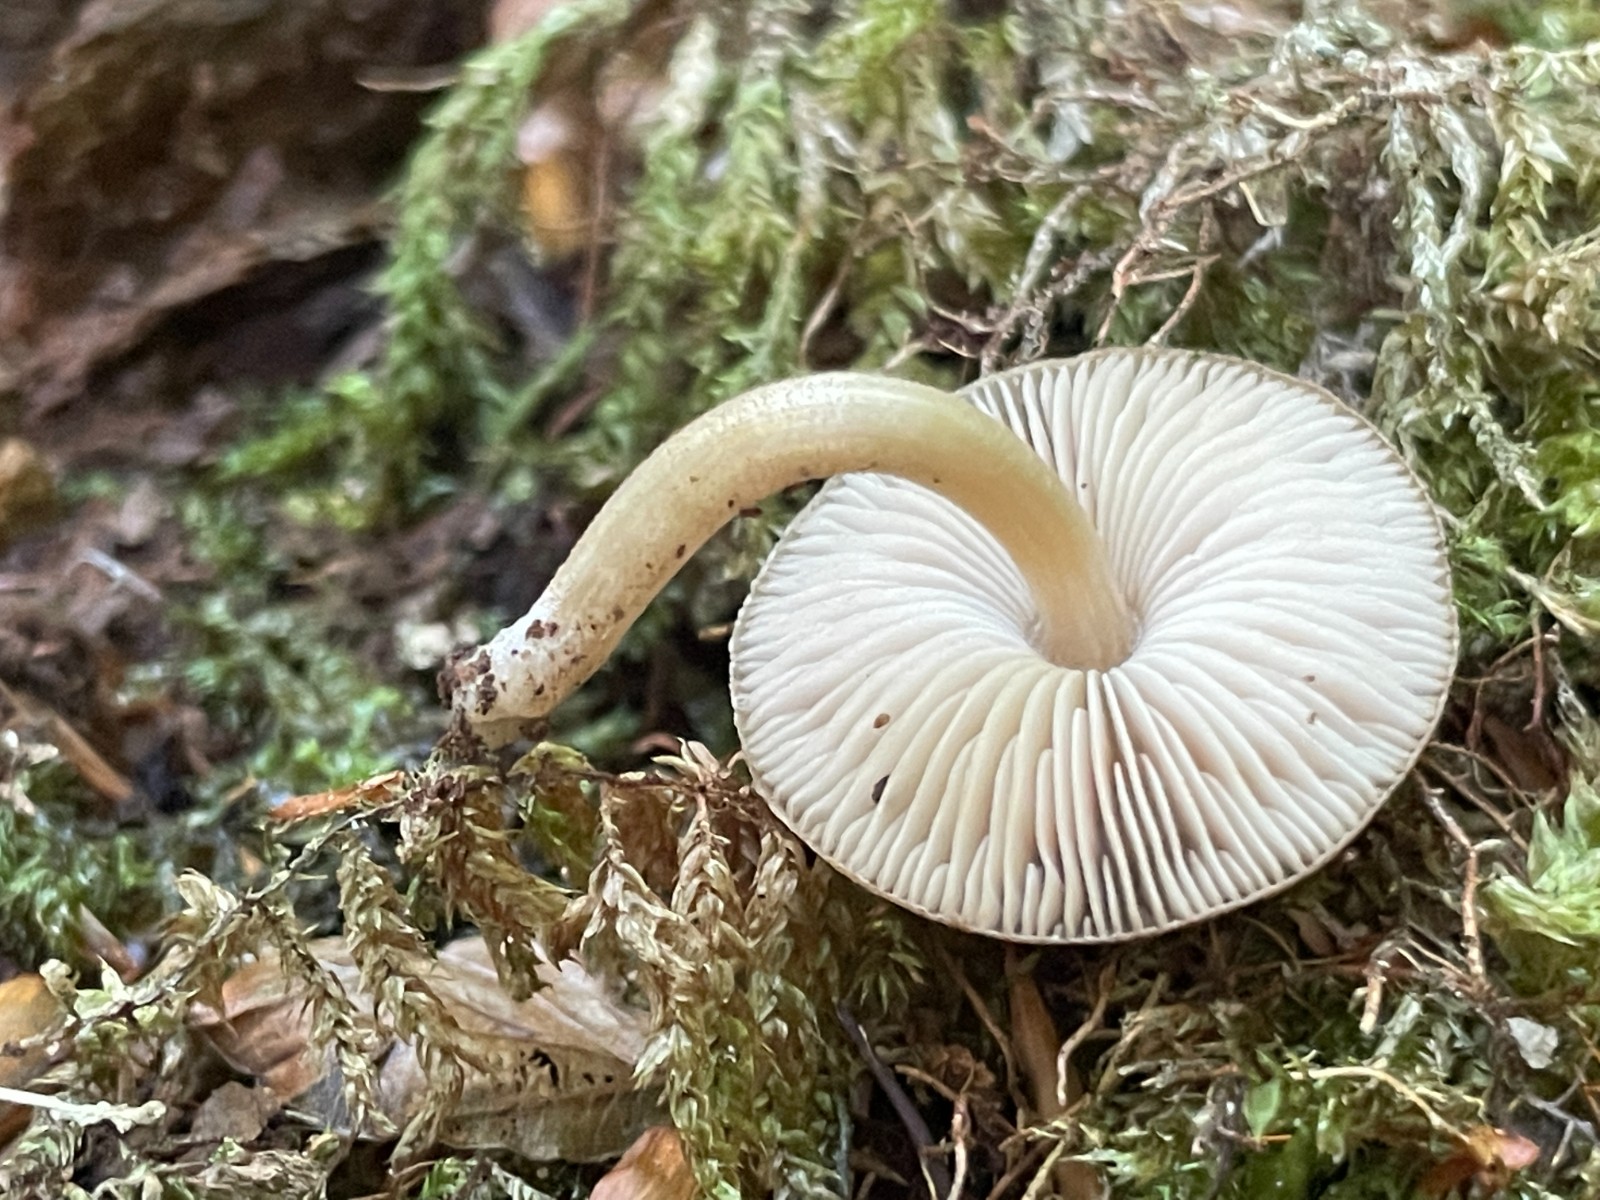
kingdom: Fungi
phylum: Basidiomycota
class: Agaricomycetes
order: Agaricales
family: Pluteaceae
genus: Pluteus
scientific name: Pluteus plautus
